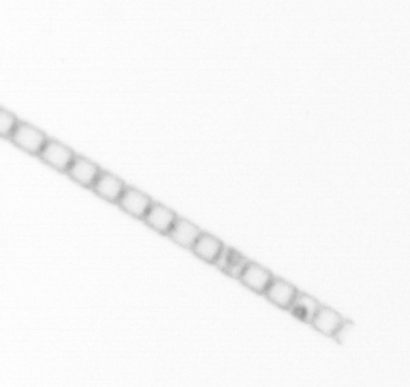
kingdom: Chromista
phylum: Ochrophyta
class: Bacillariophyceae
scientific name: Bacillariophyceae
